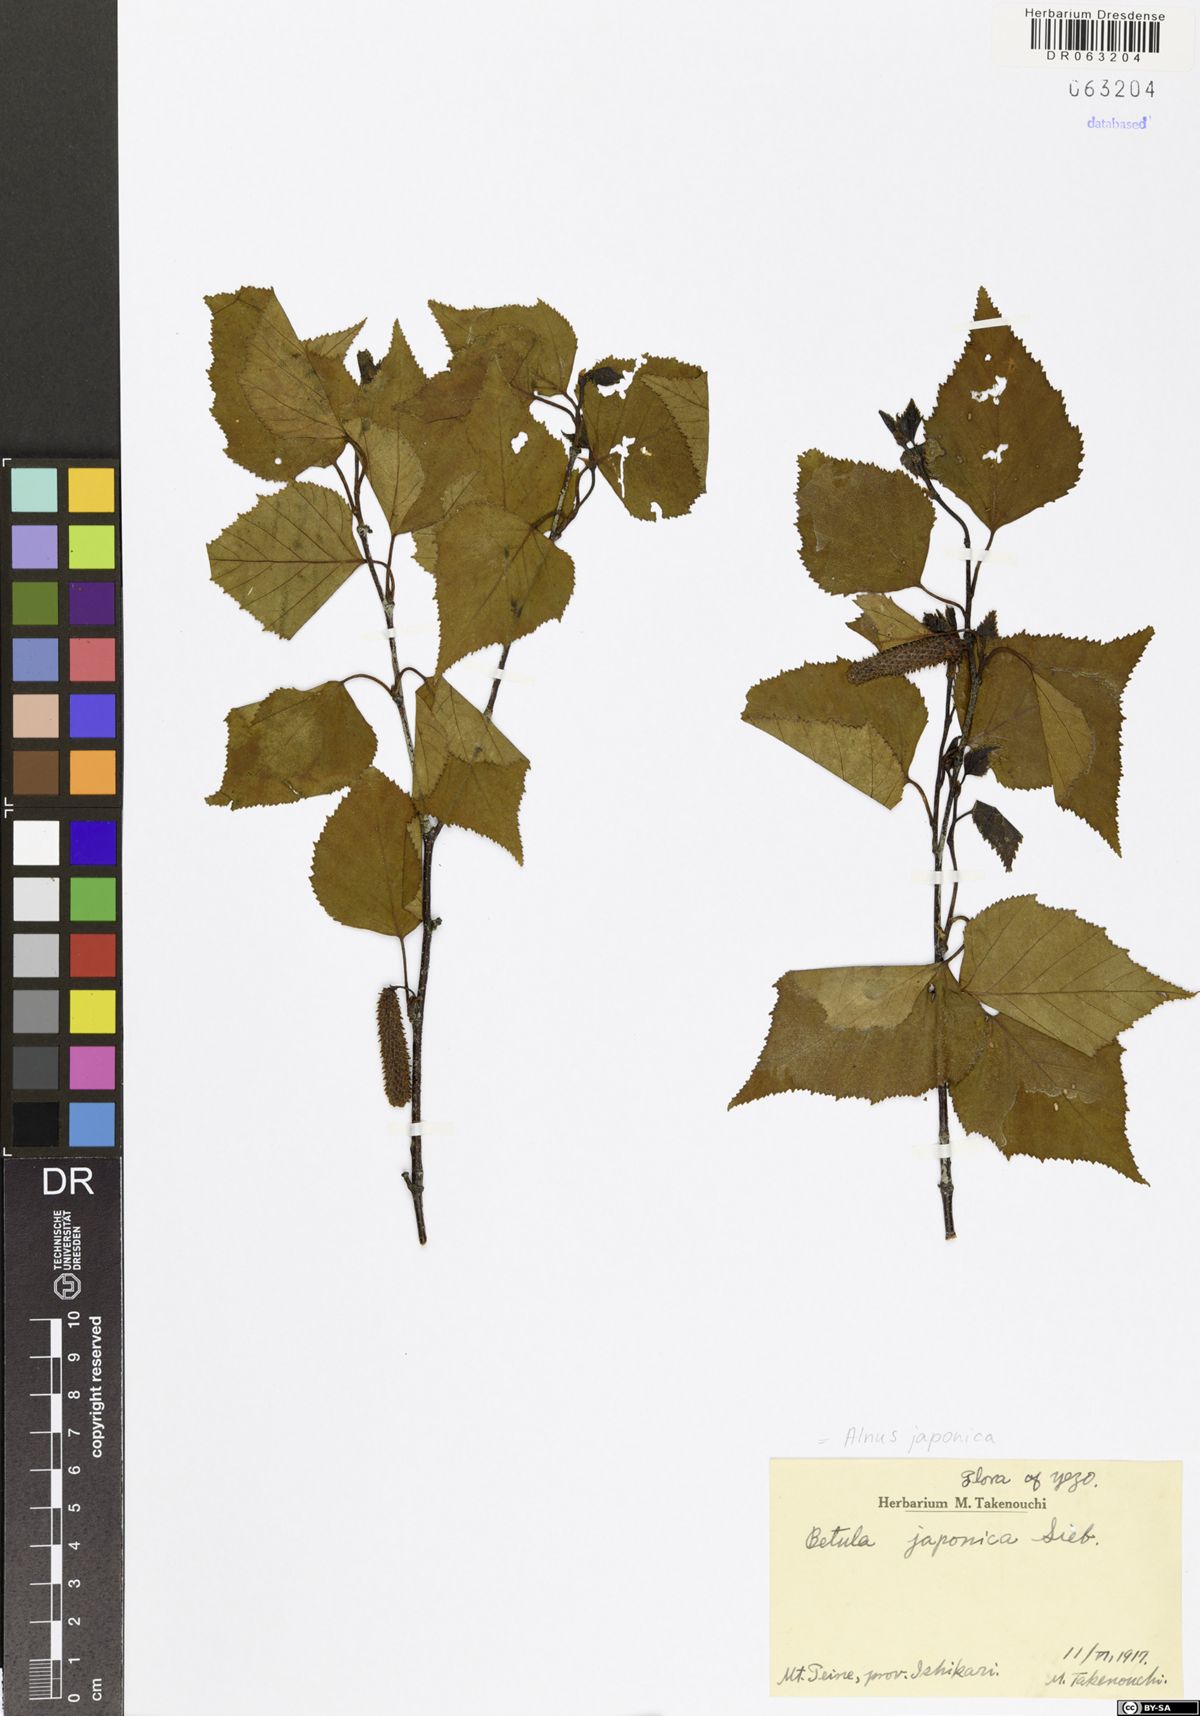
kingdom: Plantae
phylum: Tracheophyta
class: Magnoliopsida
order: Fagales
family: Betulaceae
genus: Alnus
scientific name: Alnus japonica
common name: Japanese alder
